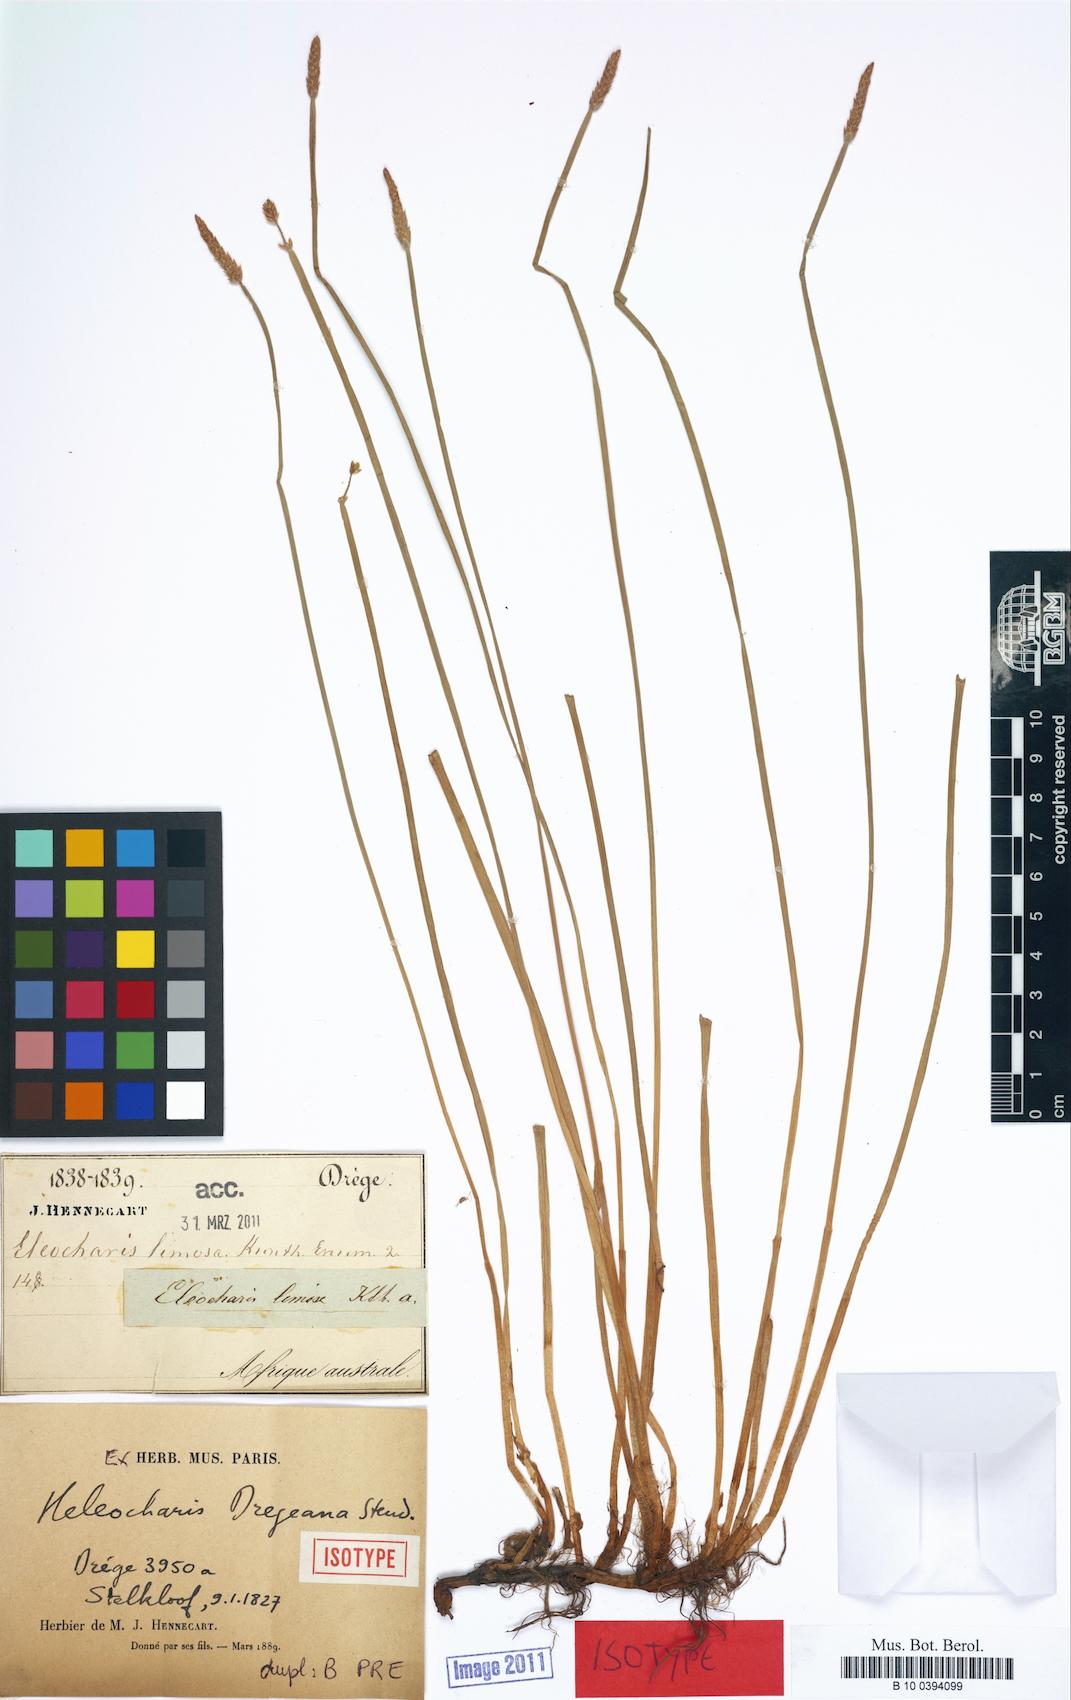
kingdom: Plantae
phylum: Tracheophyta
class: Liliopsida
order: Poales
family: Cyperaceae
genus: Eleocharis
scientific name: Eleocharis dregeana
